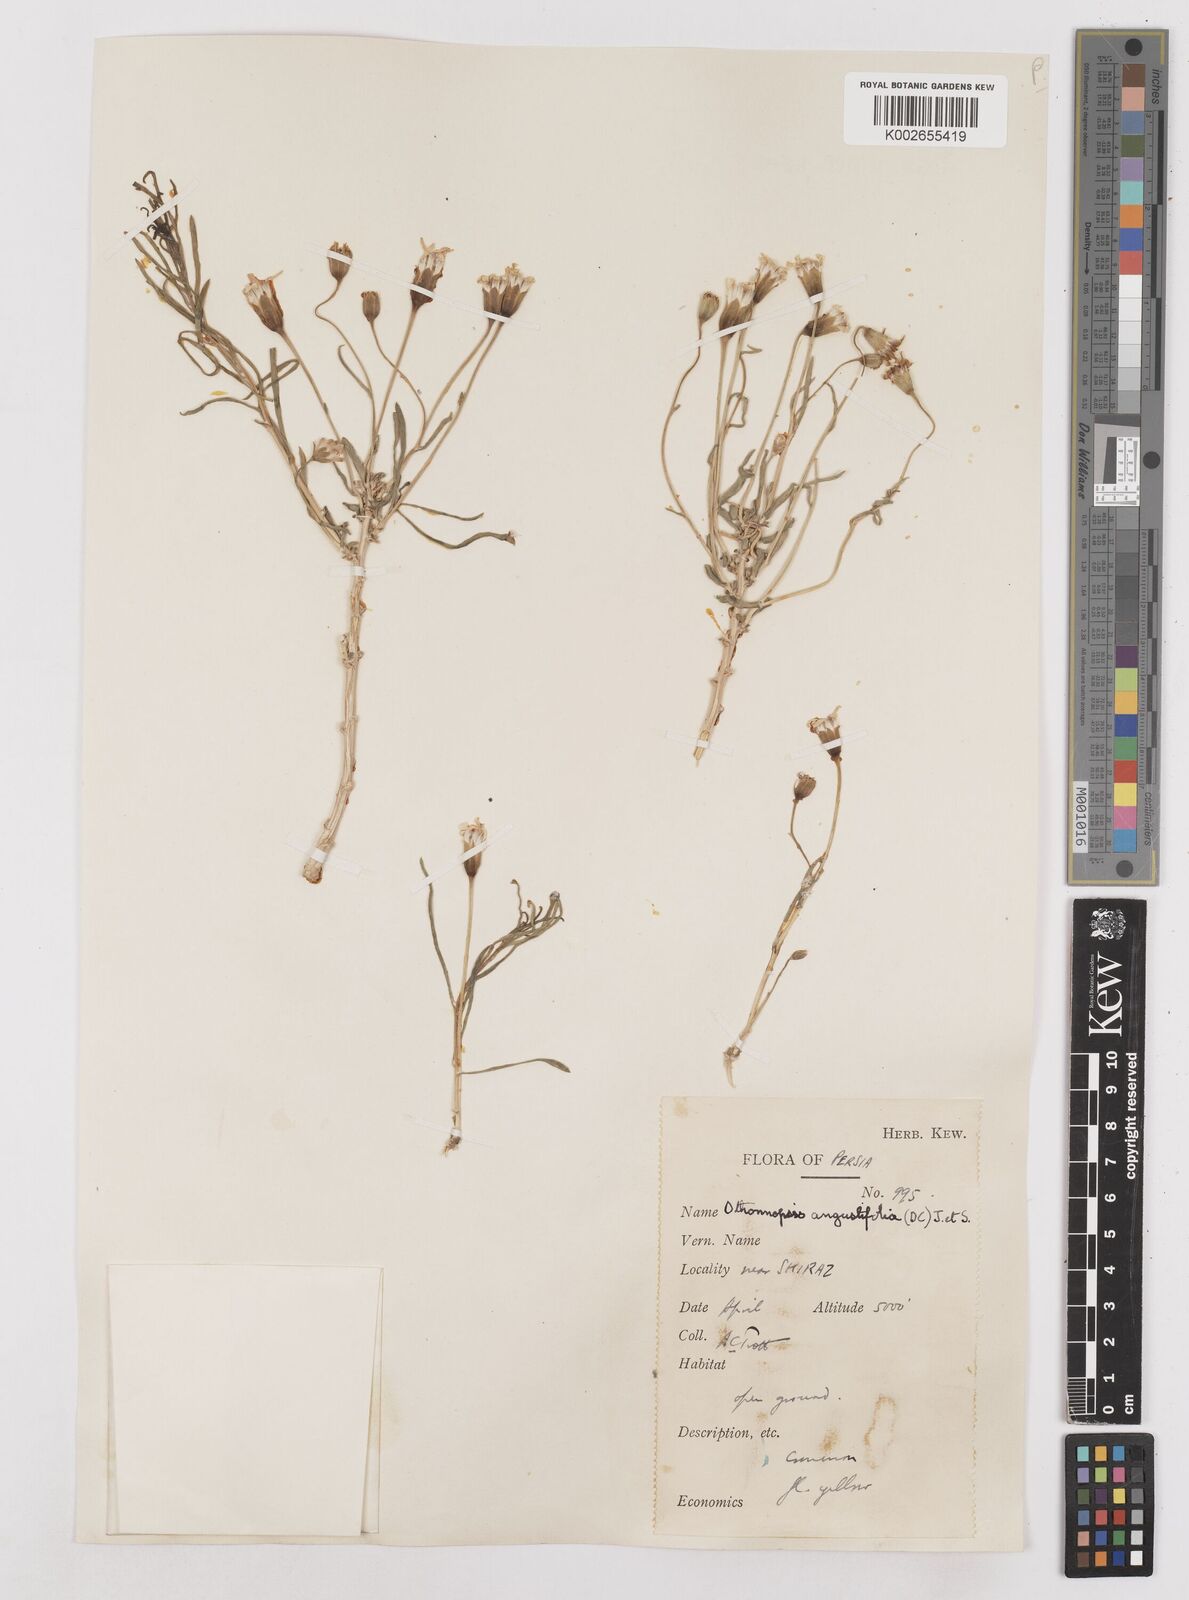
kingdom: Plantae
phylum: Tracheophyta
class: Magnoliopsida
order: Asterales
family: Asteraceae
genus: Hertia
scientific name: Hertia angustifolia
